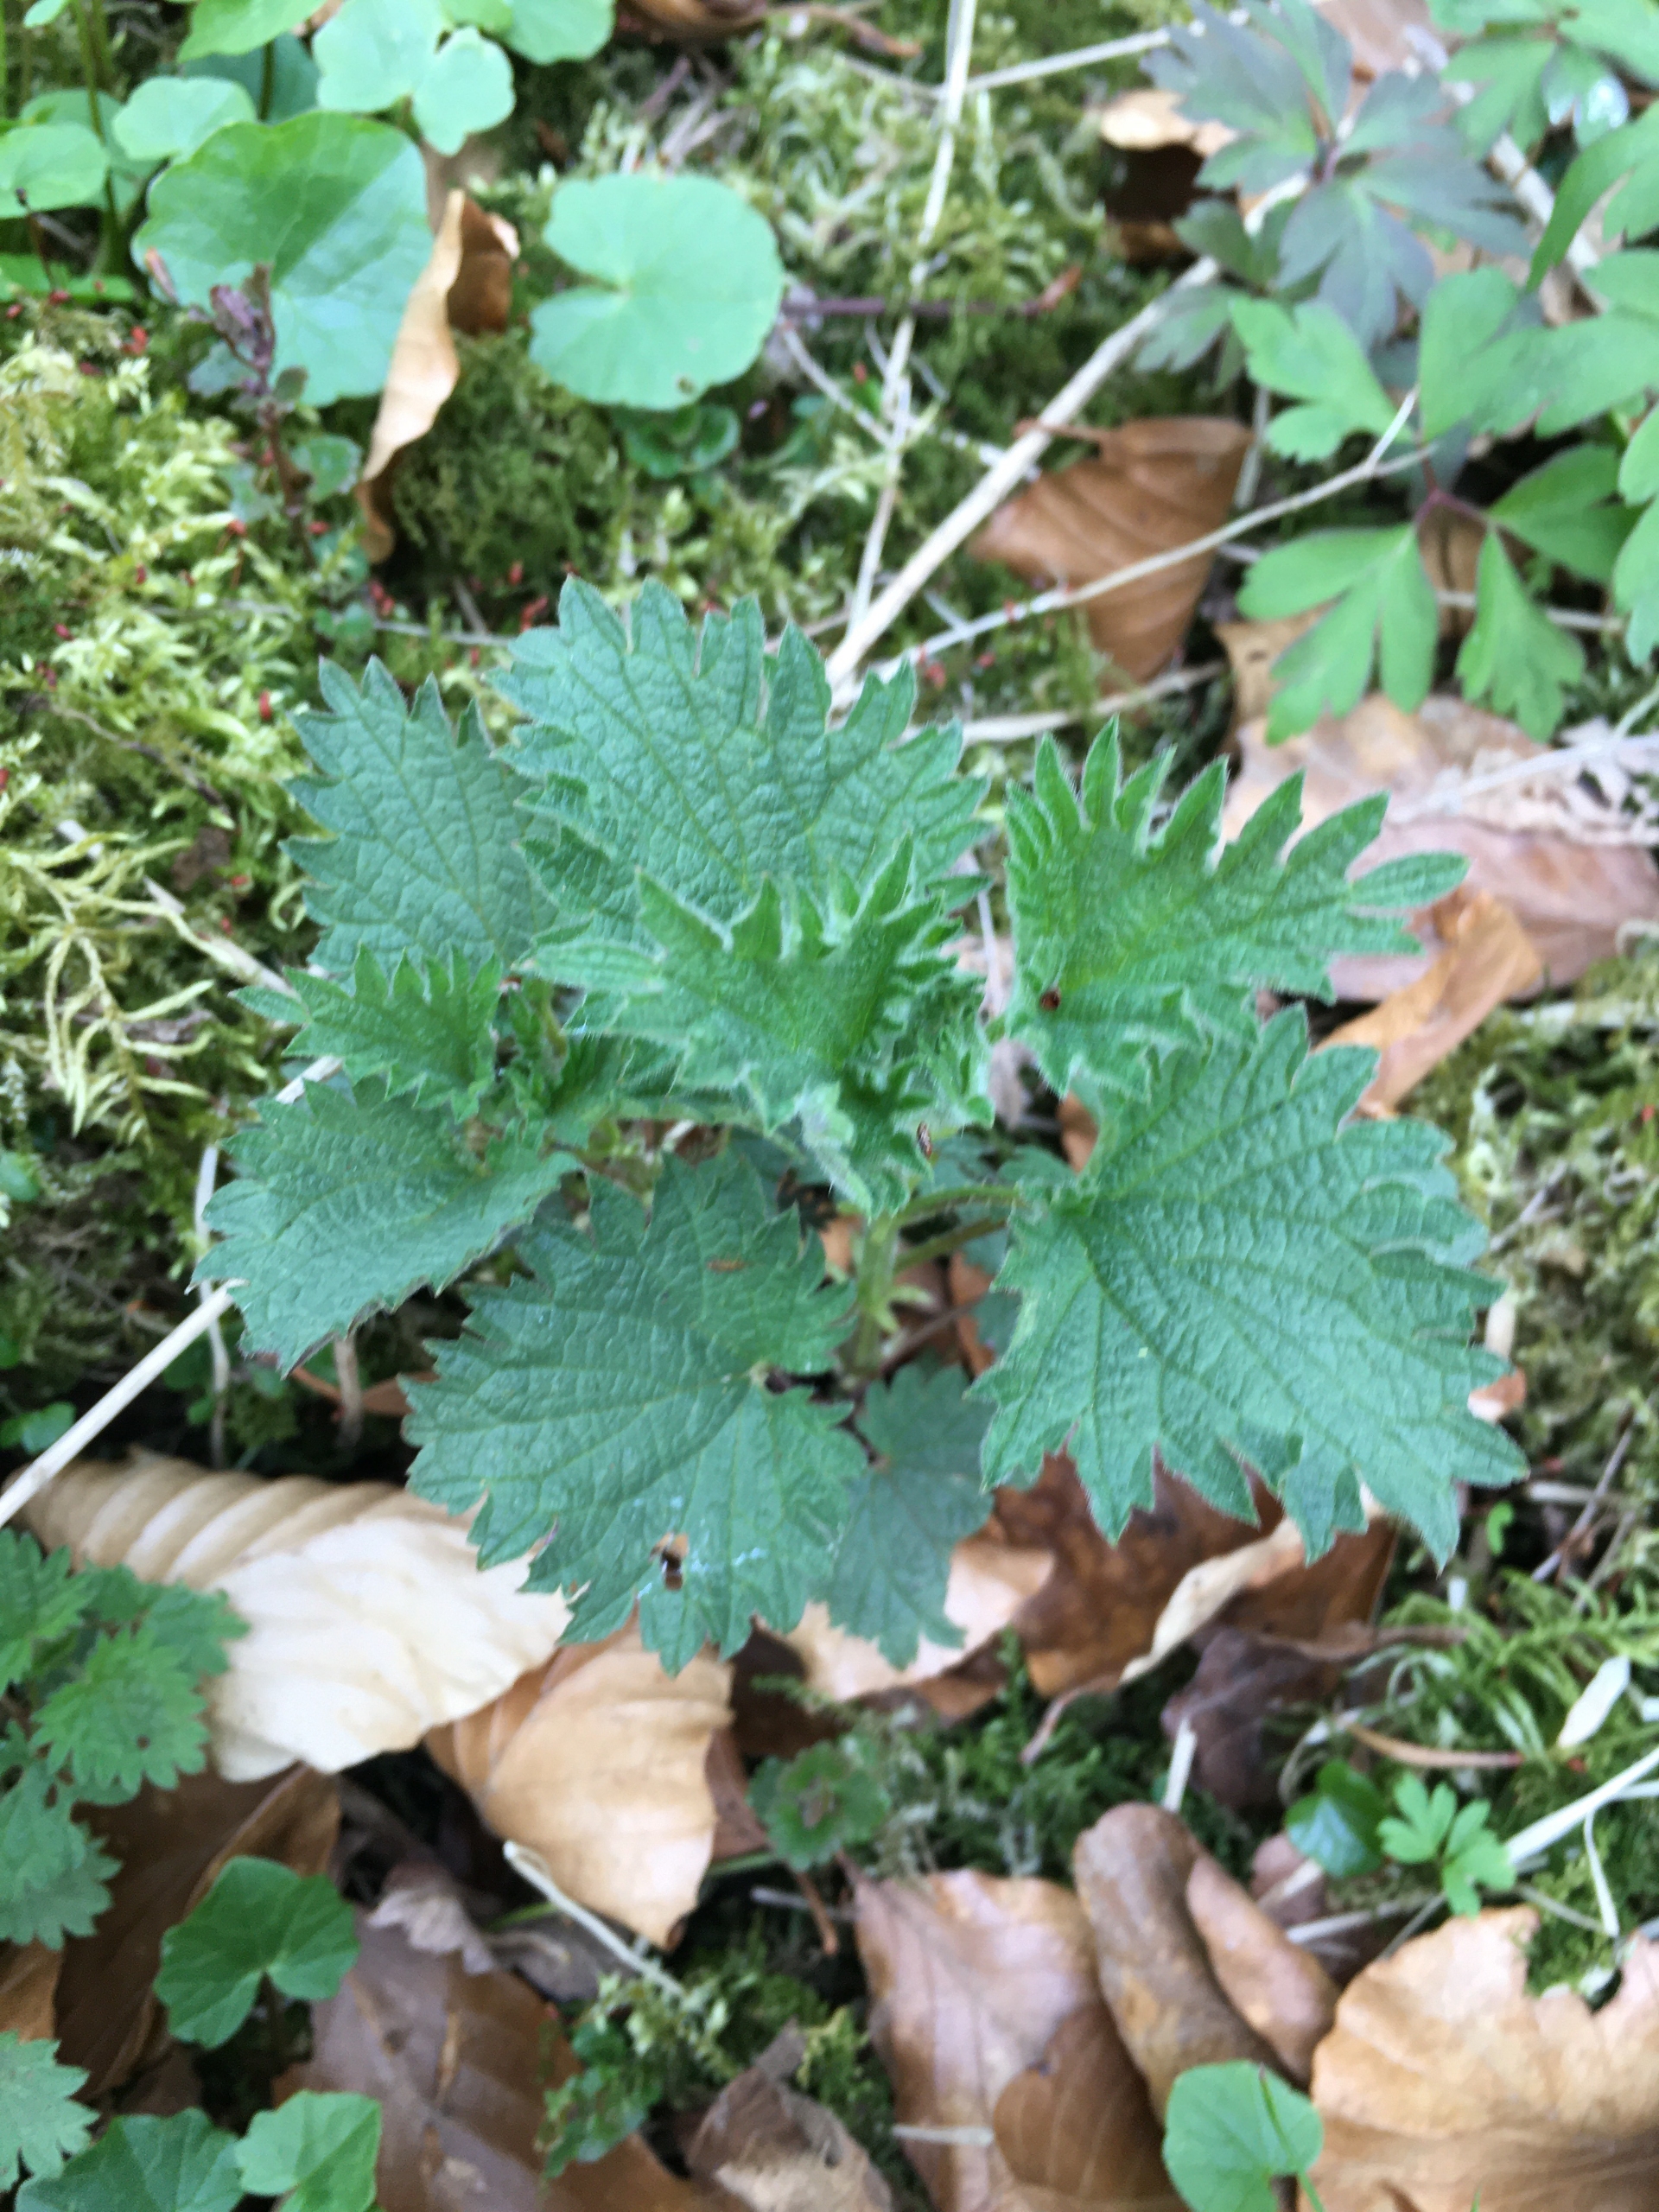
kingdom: Plantae
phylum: Tracheophyta
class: Magnoliopsida
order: Rosales
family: Urticaceae
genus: Urtica
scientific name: Urtica dioica
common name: Stor nælde
